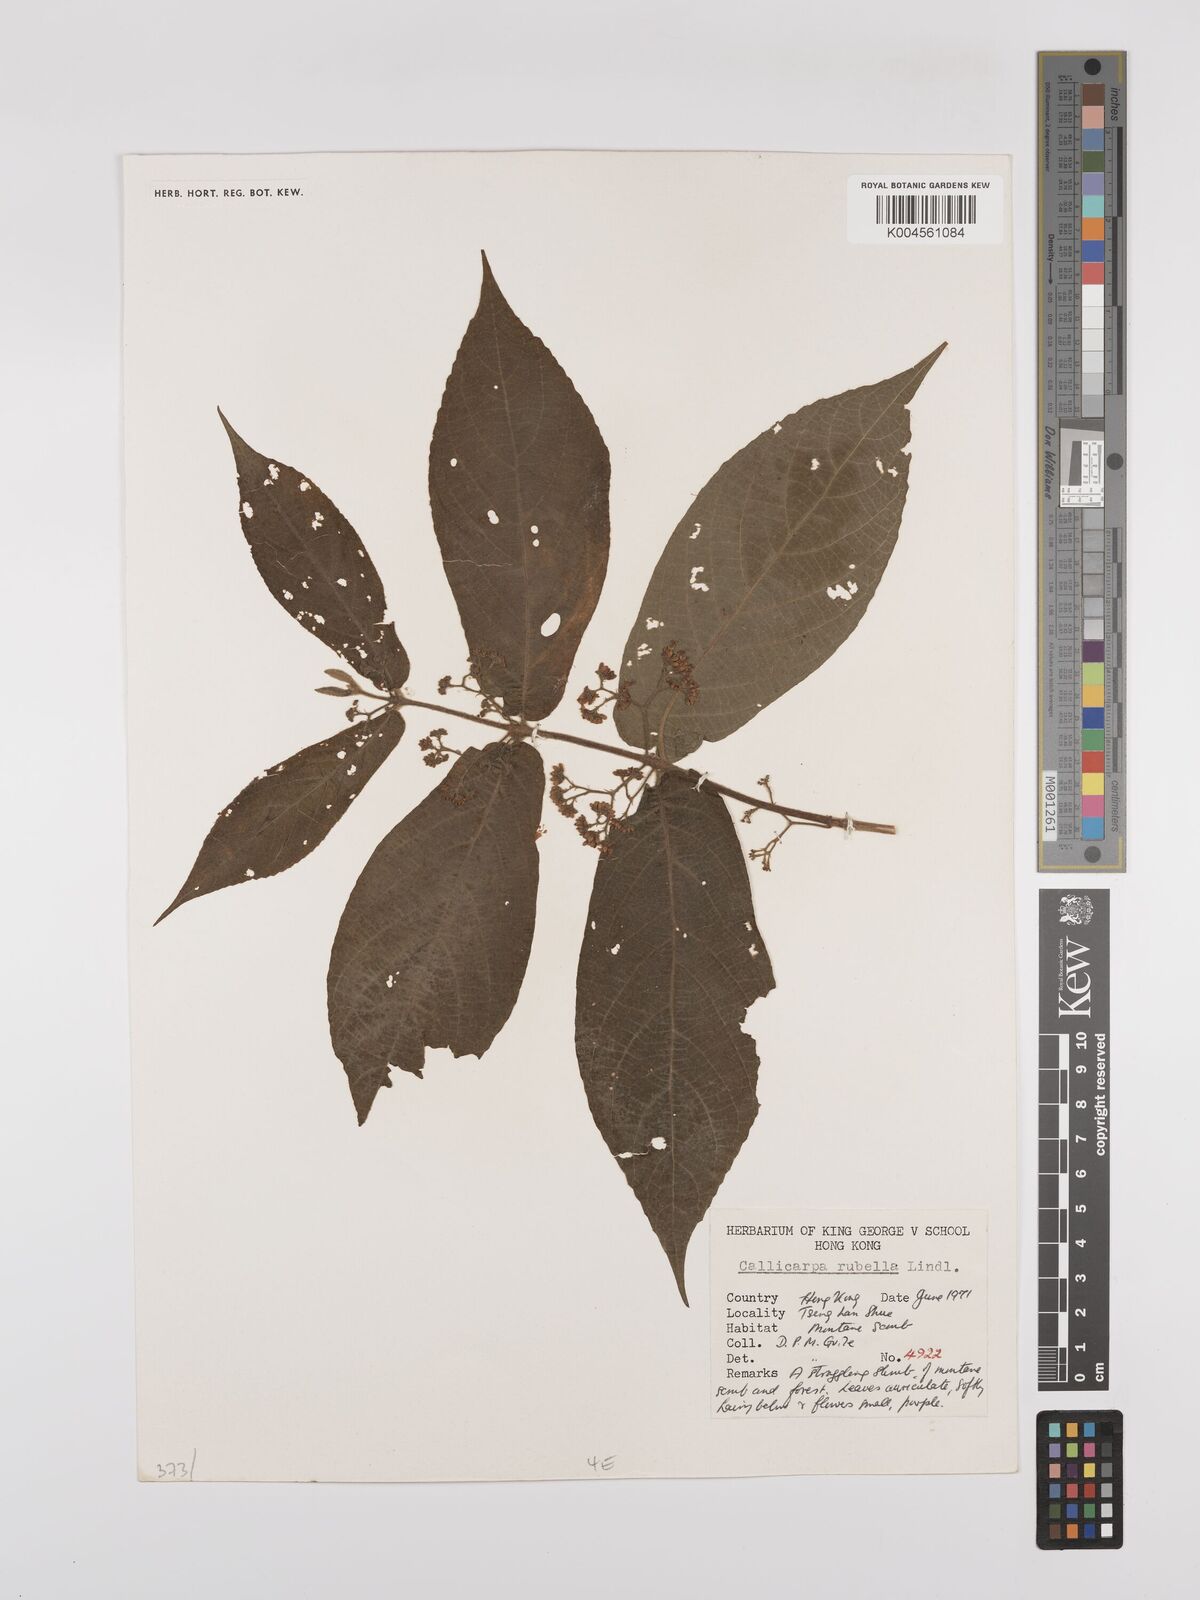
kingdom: Plantae
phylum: Tracheophyta
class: Magnoliopsida
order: Lamiales
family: Lamiaceae
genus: Callicarpa
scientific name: Callicarpa rubella
